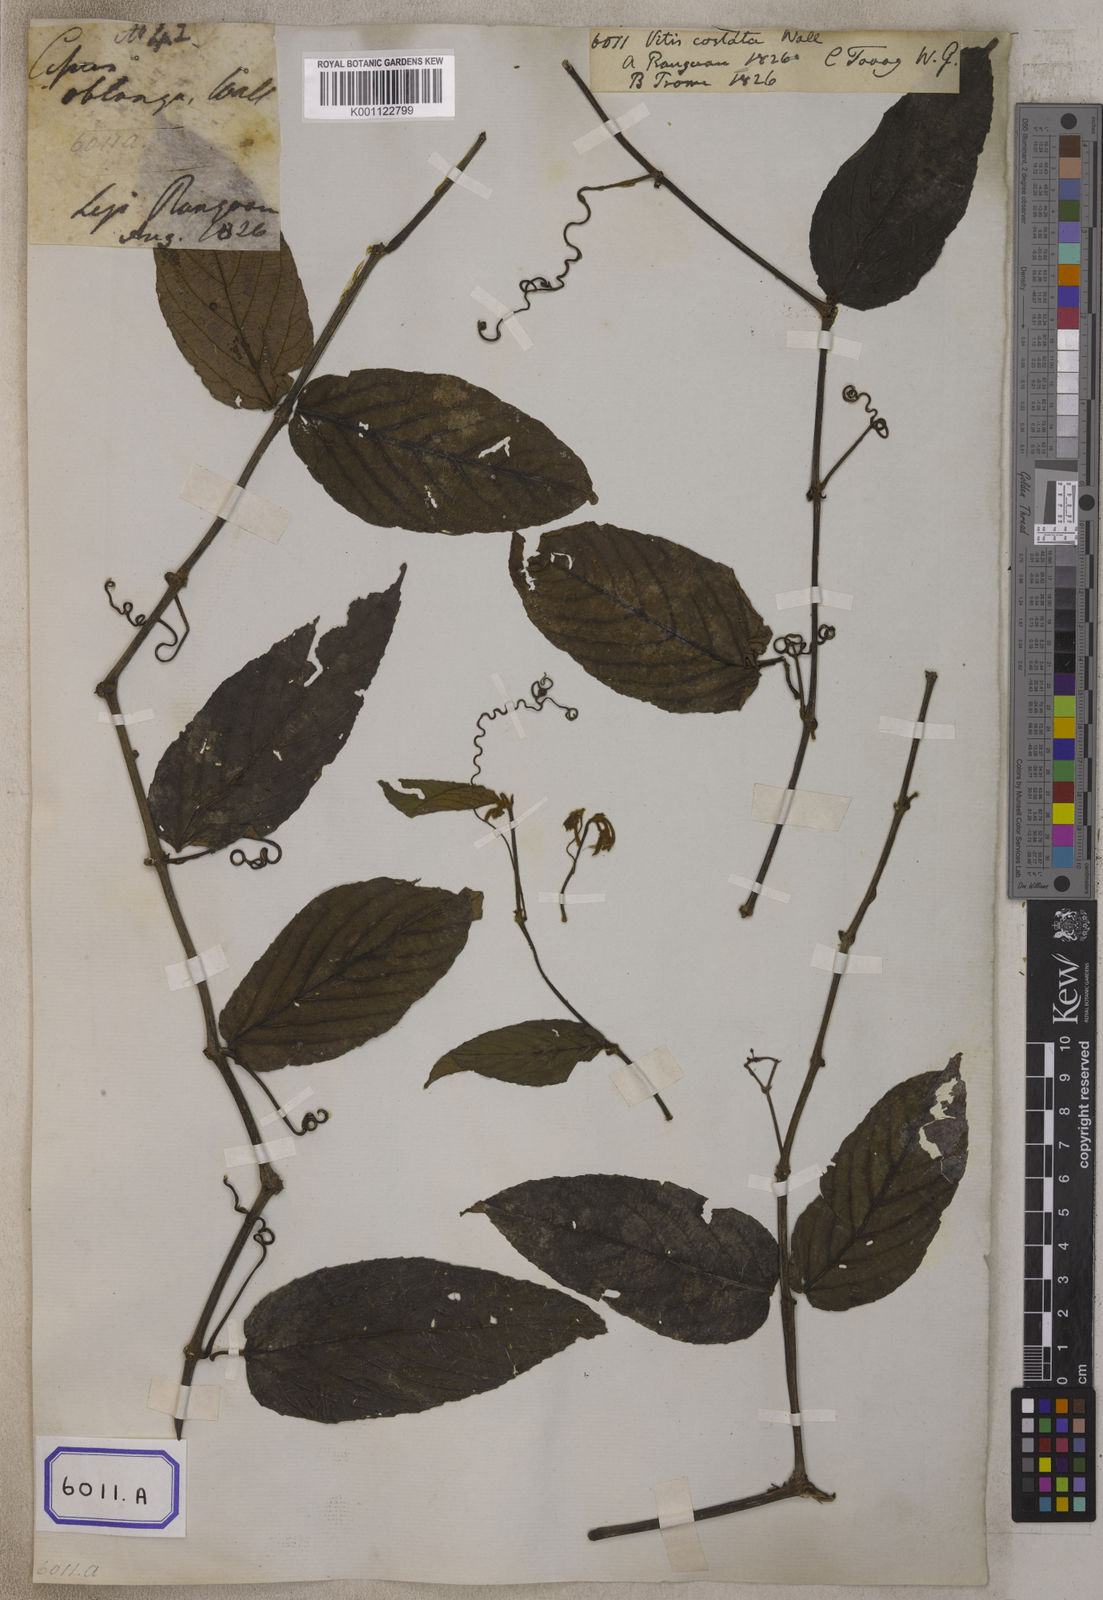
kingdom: Plantae
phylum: Tracheophyta
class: Magnoliopsida
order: Vitales
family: Vitaceae
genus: Cissus
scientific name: Cissus discolor
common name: Climbing-begonia
